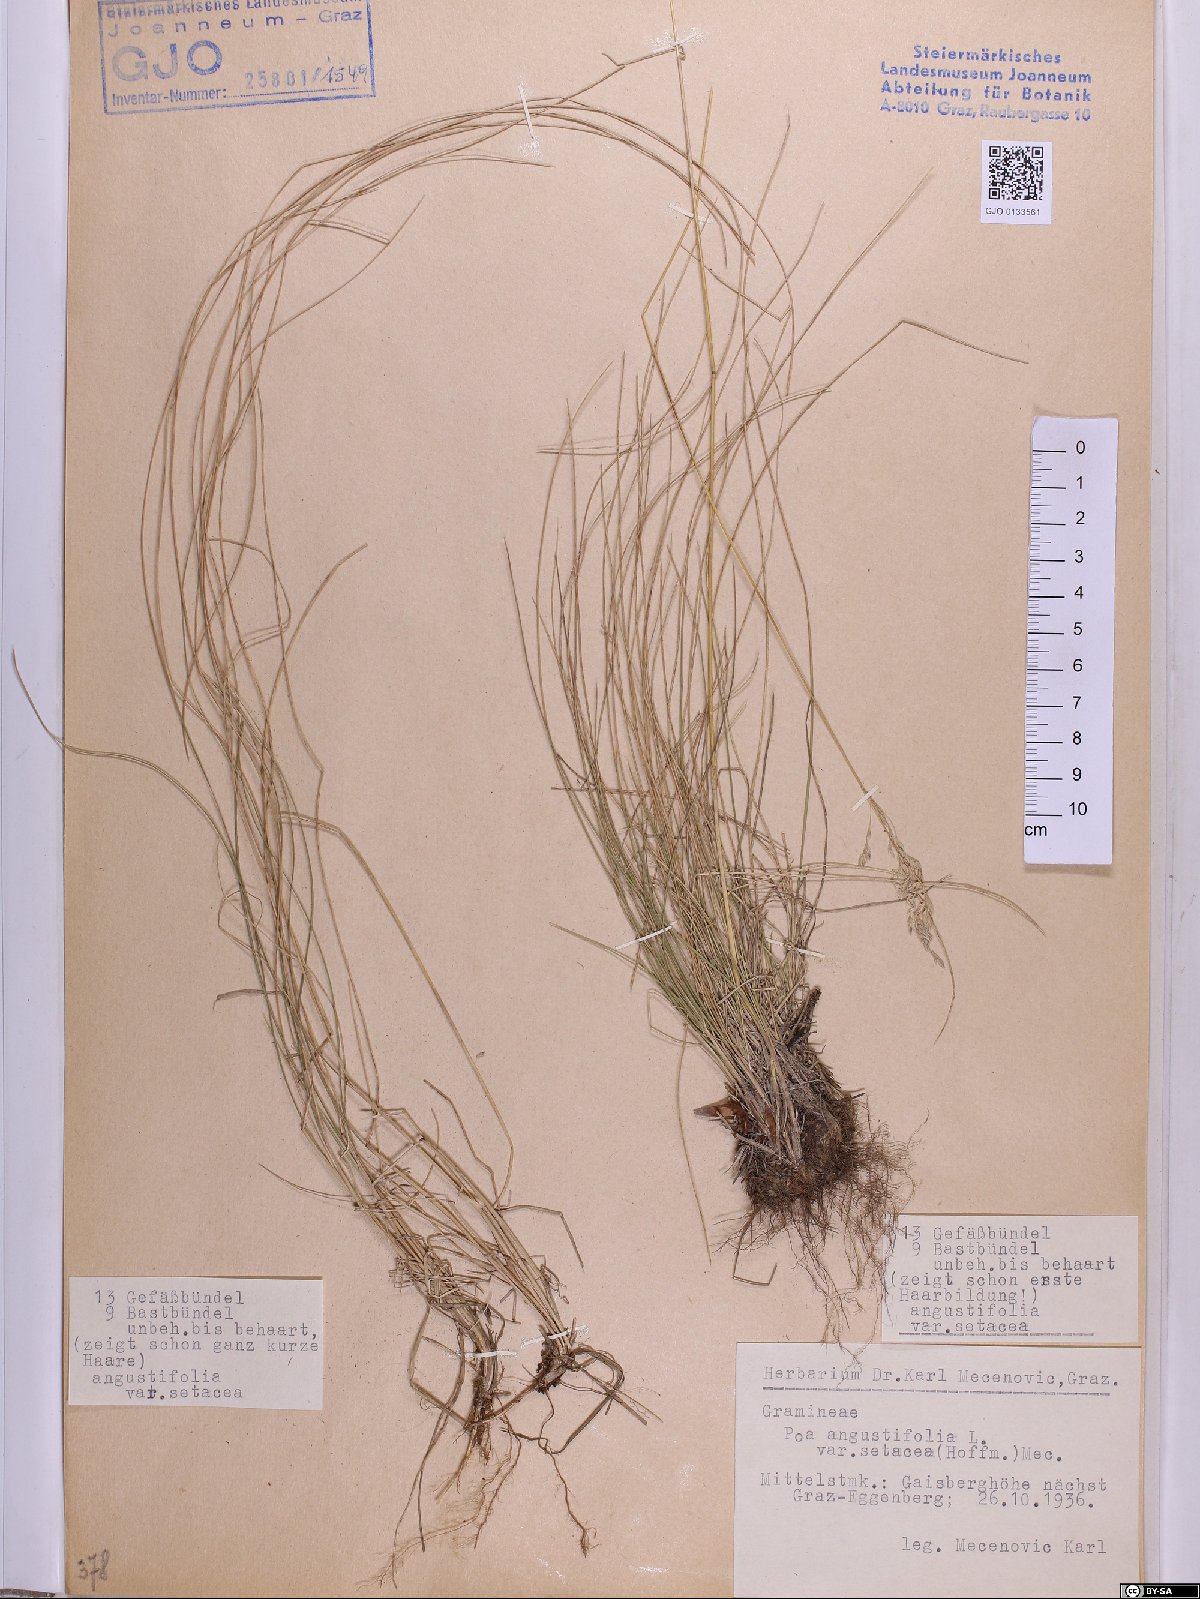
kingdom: Plantae
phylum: Tracheophyta
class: Liliopsida
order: Poales
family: Poaceae
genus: Poa
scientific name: Poa angustifolia
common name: Narrow-leaved meadow-grass
